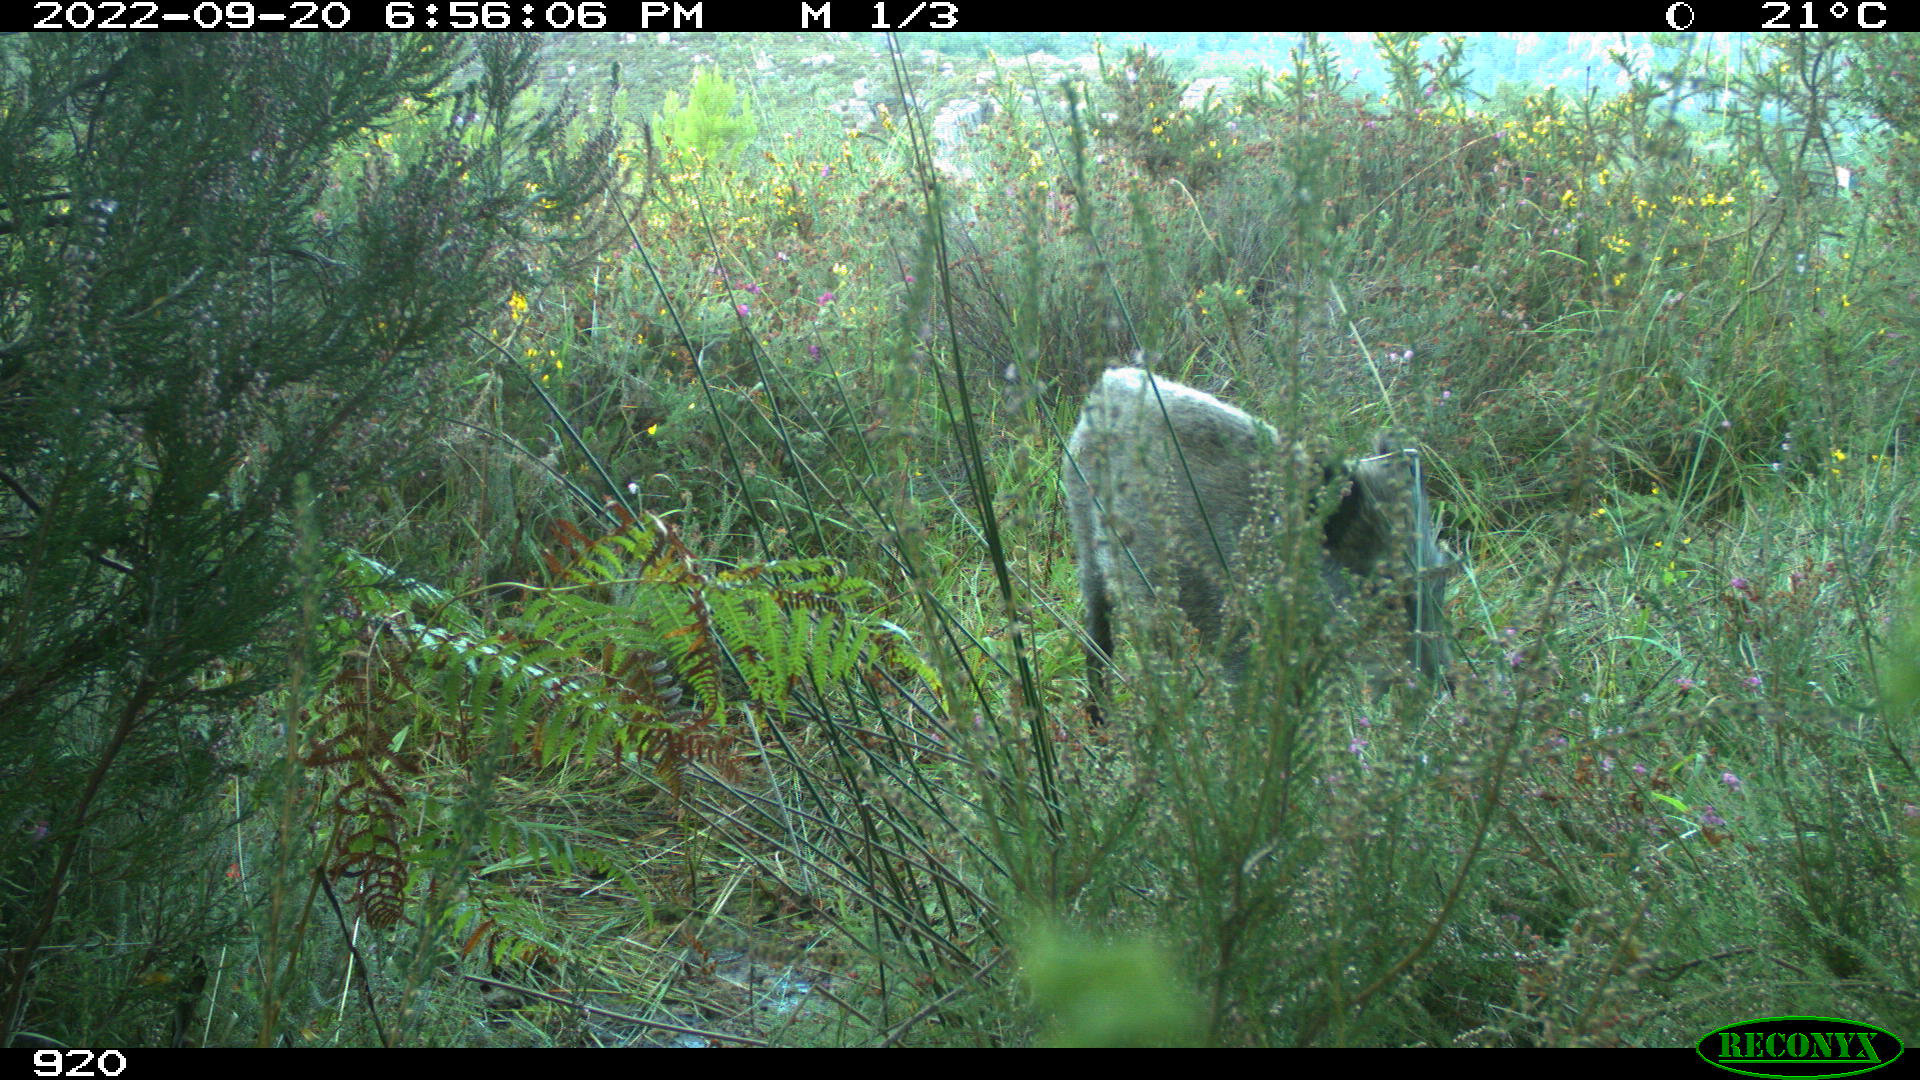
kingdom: Animalia
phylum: Chordata
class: Mammalia
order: Artiodactyla
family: Suidae
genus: Sus
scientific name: Sus scrofa
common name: Wild boar
